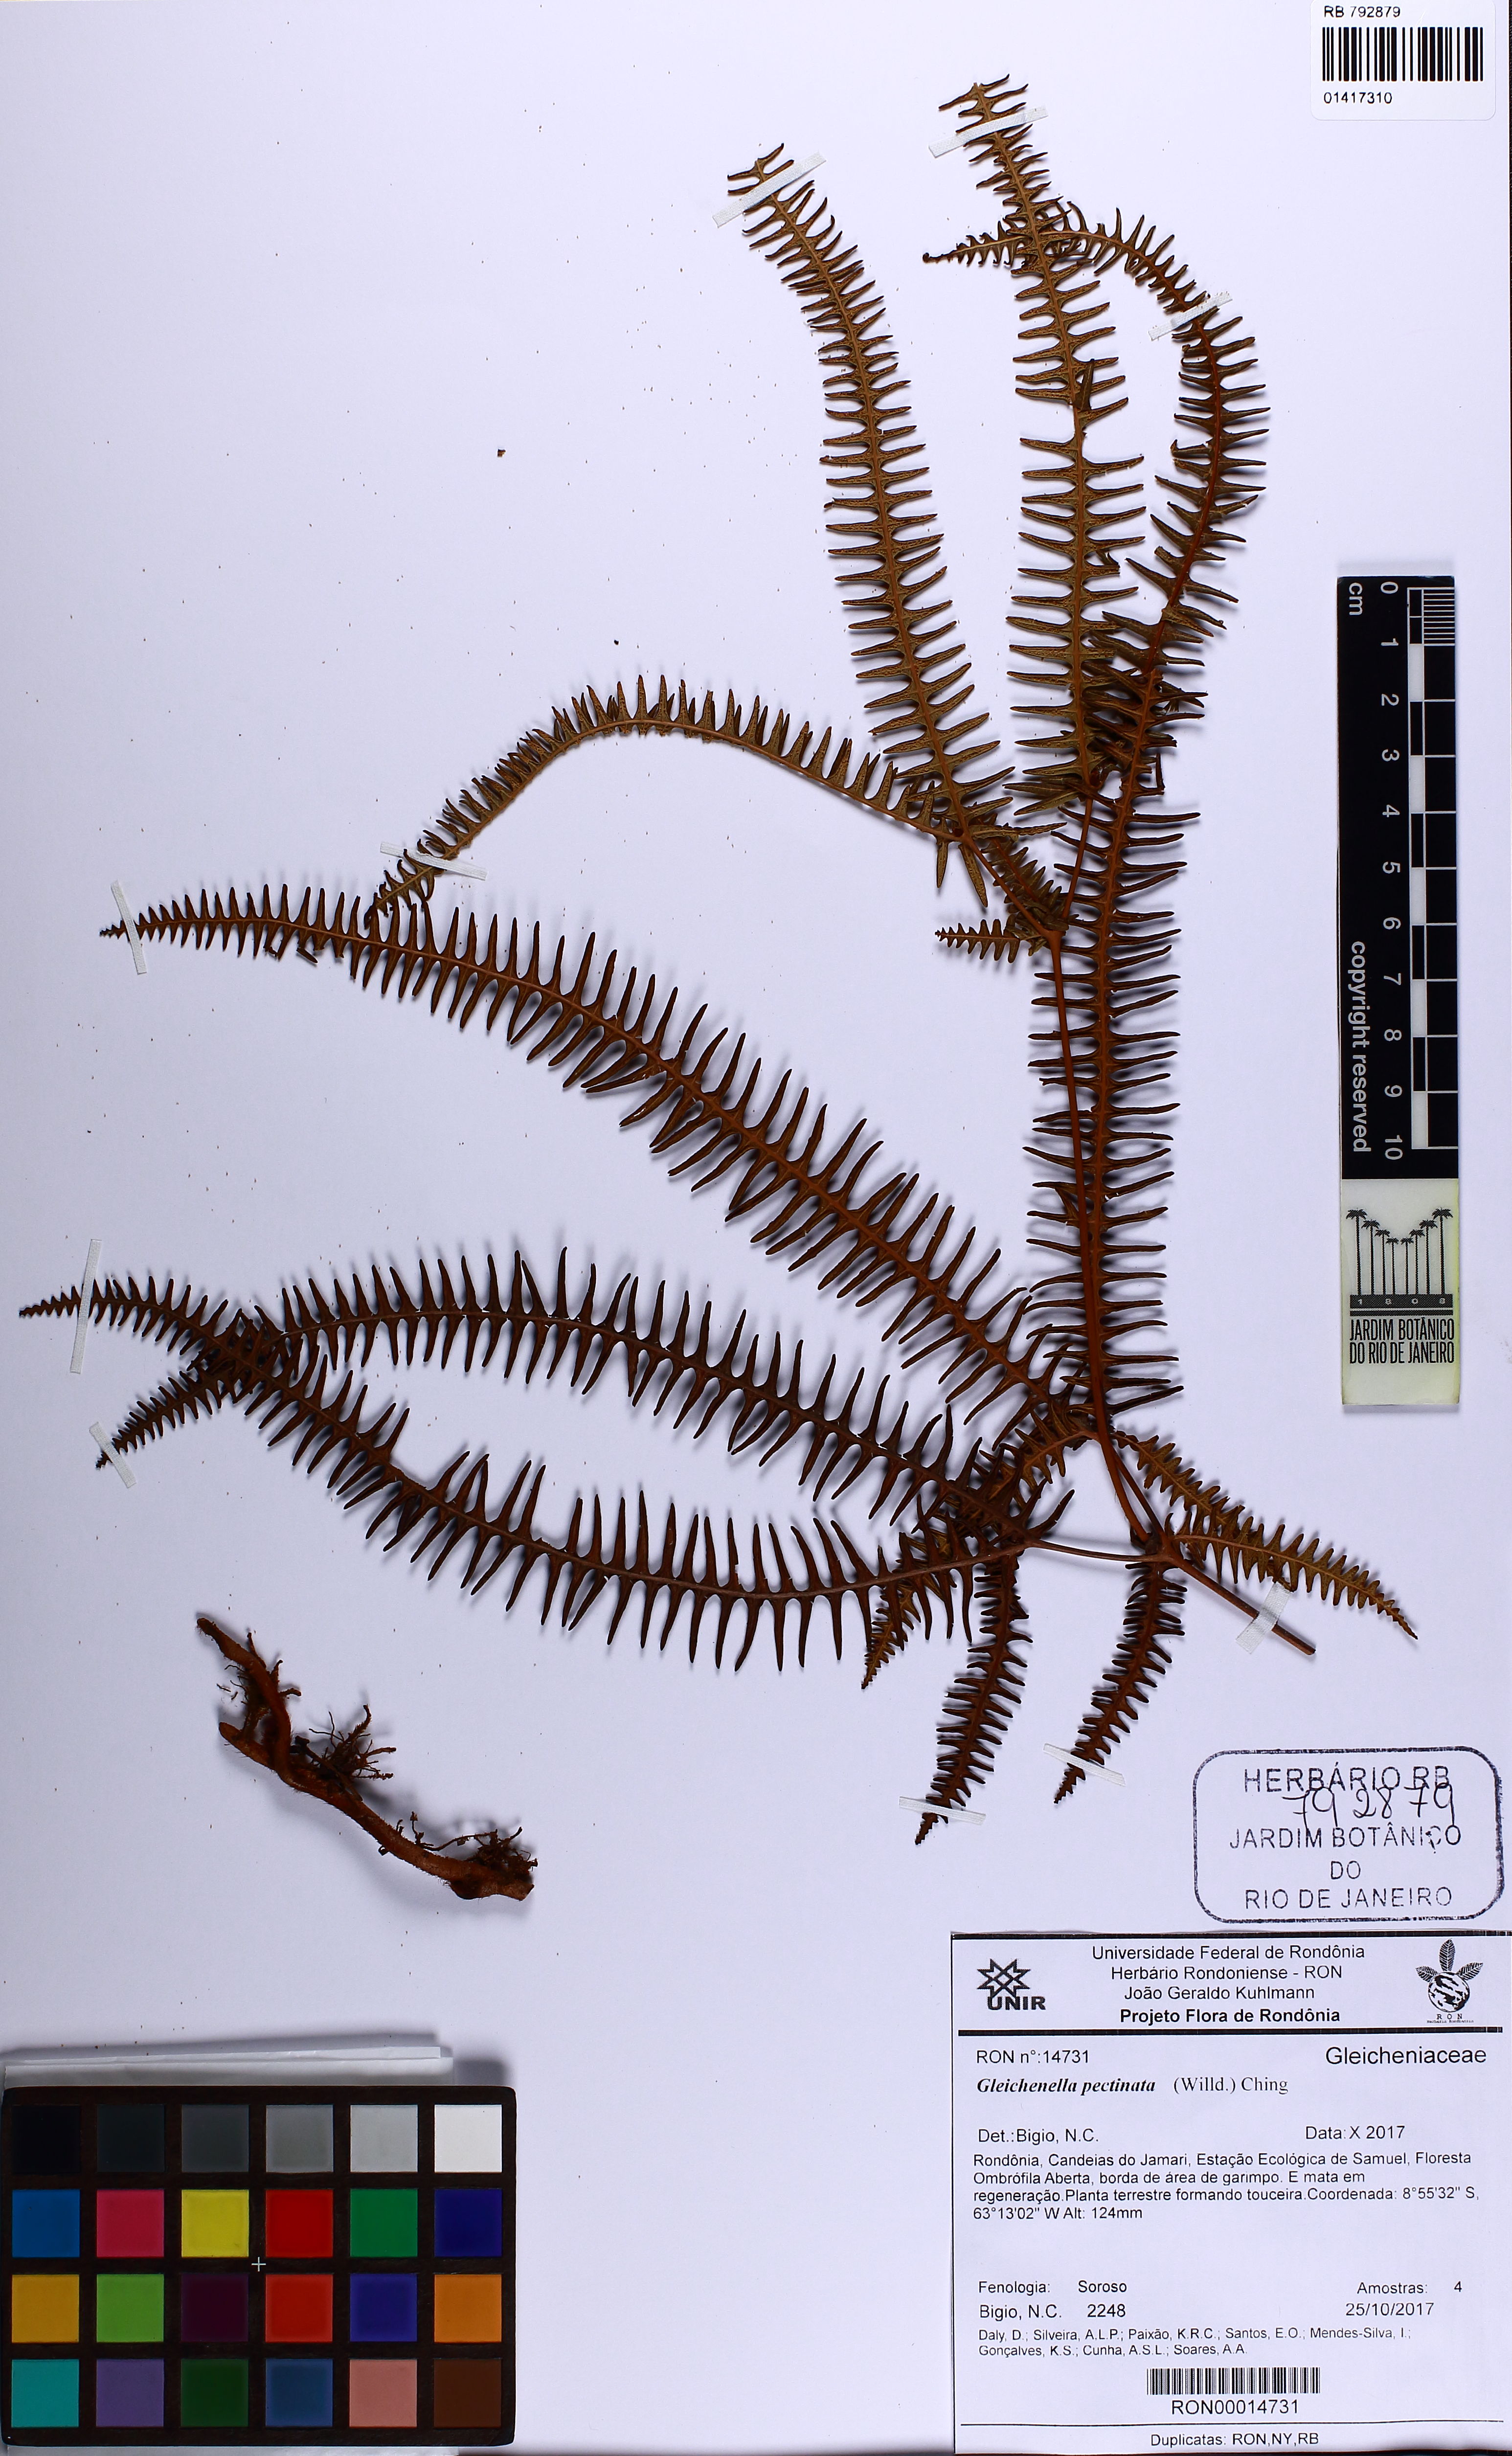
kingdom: Plantae
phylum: Tracheophyta
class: Polypodiopsida
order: Gleicheniales
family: Gleicheniaceae
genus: Gleichenella
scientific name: Gleichenella pectinata
